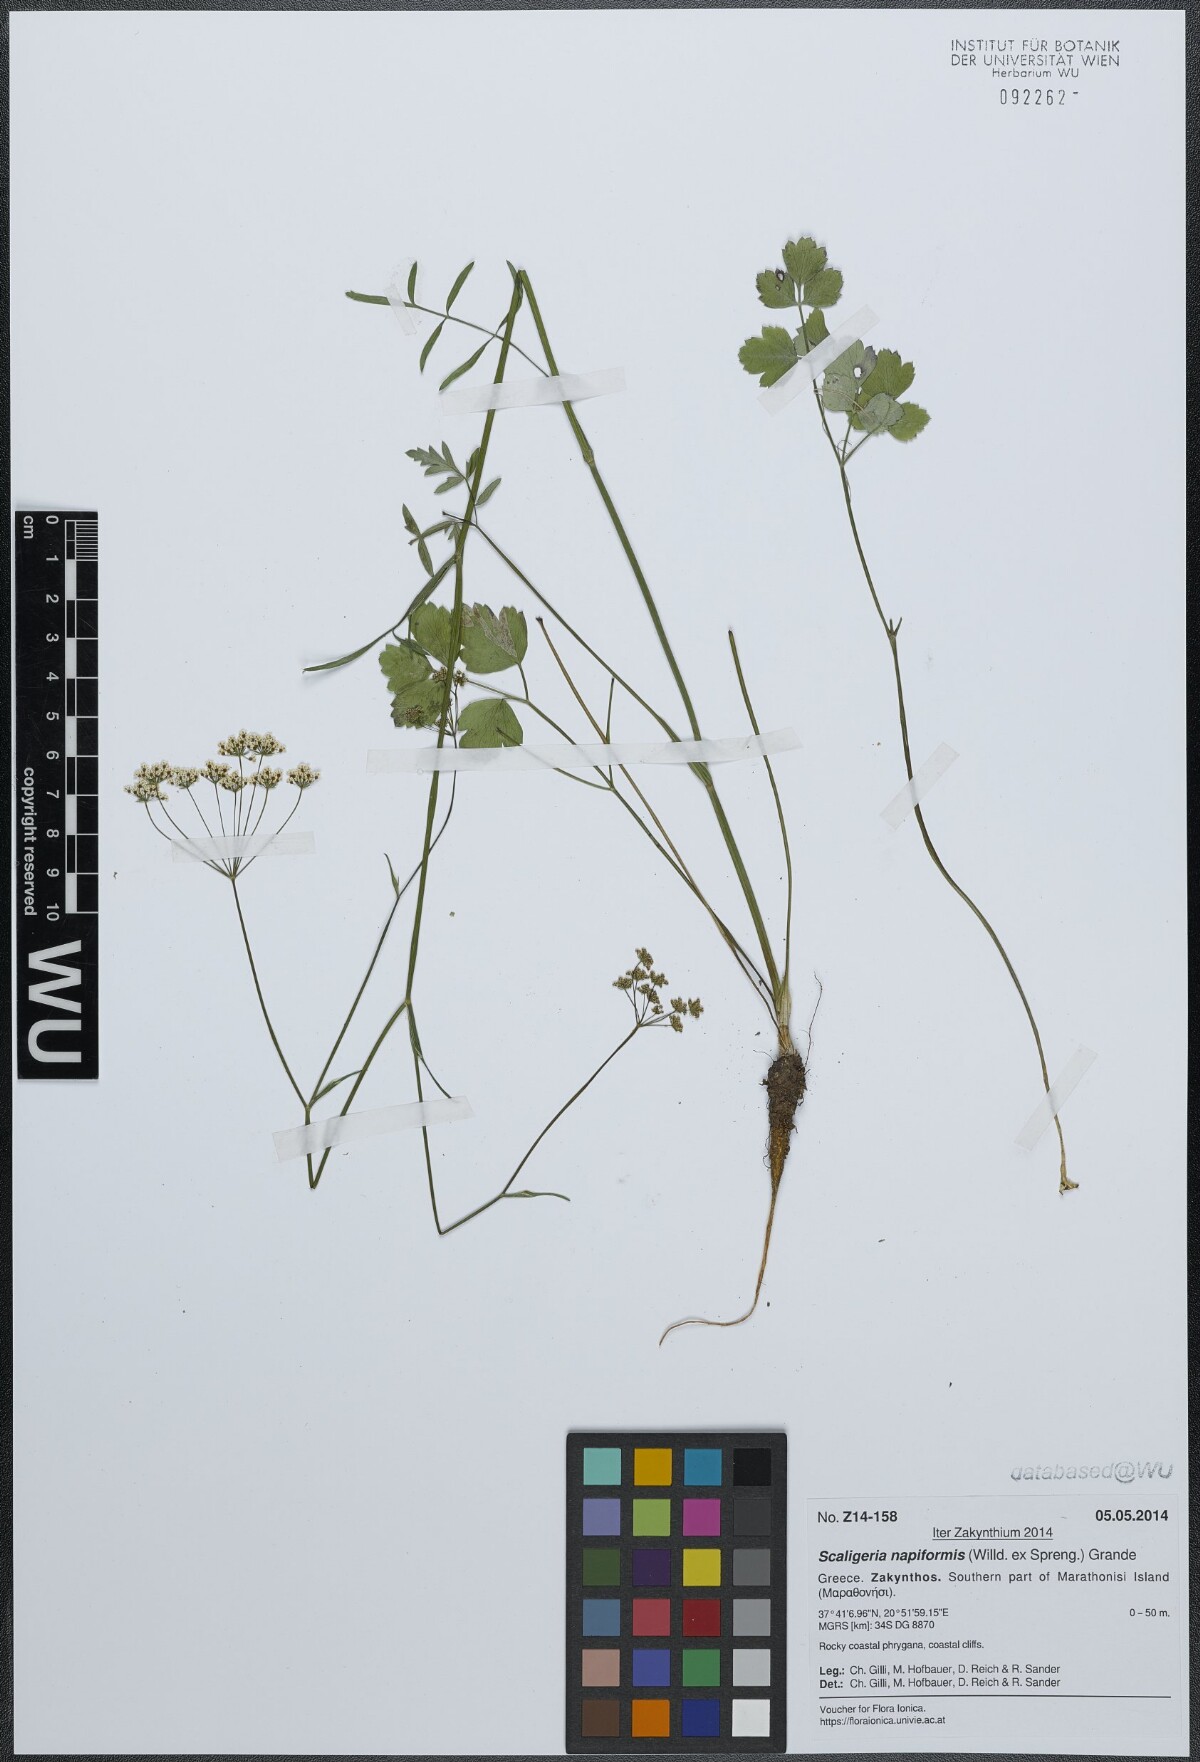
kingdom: Plantae
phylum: Tracheophyta
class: Magnoliopsida
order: Apiales
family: Apiaceae
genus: Scaligeria
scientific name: Scaligeria napiformis
